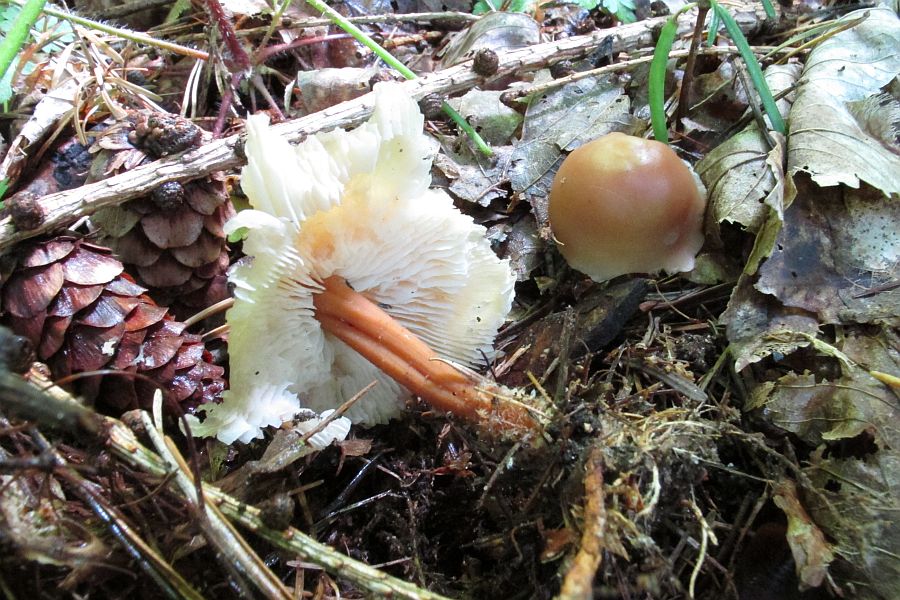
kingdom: Fungi
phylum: Basidiomycota
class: Agaricomycetes
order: Agaricales
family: Omphalotaceae
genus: Gymnopus
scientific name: Gymnopus dryophilus
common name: løv-fladhat
